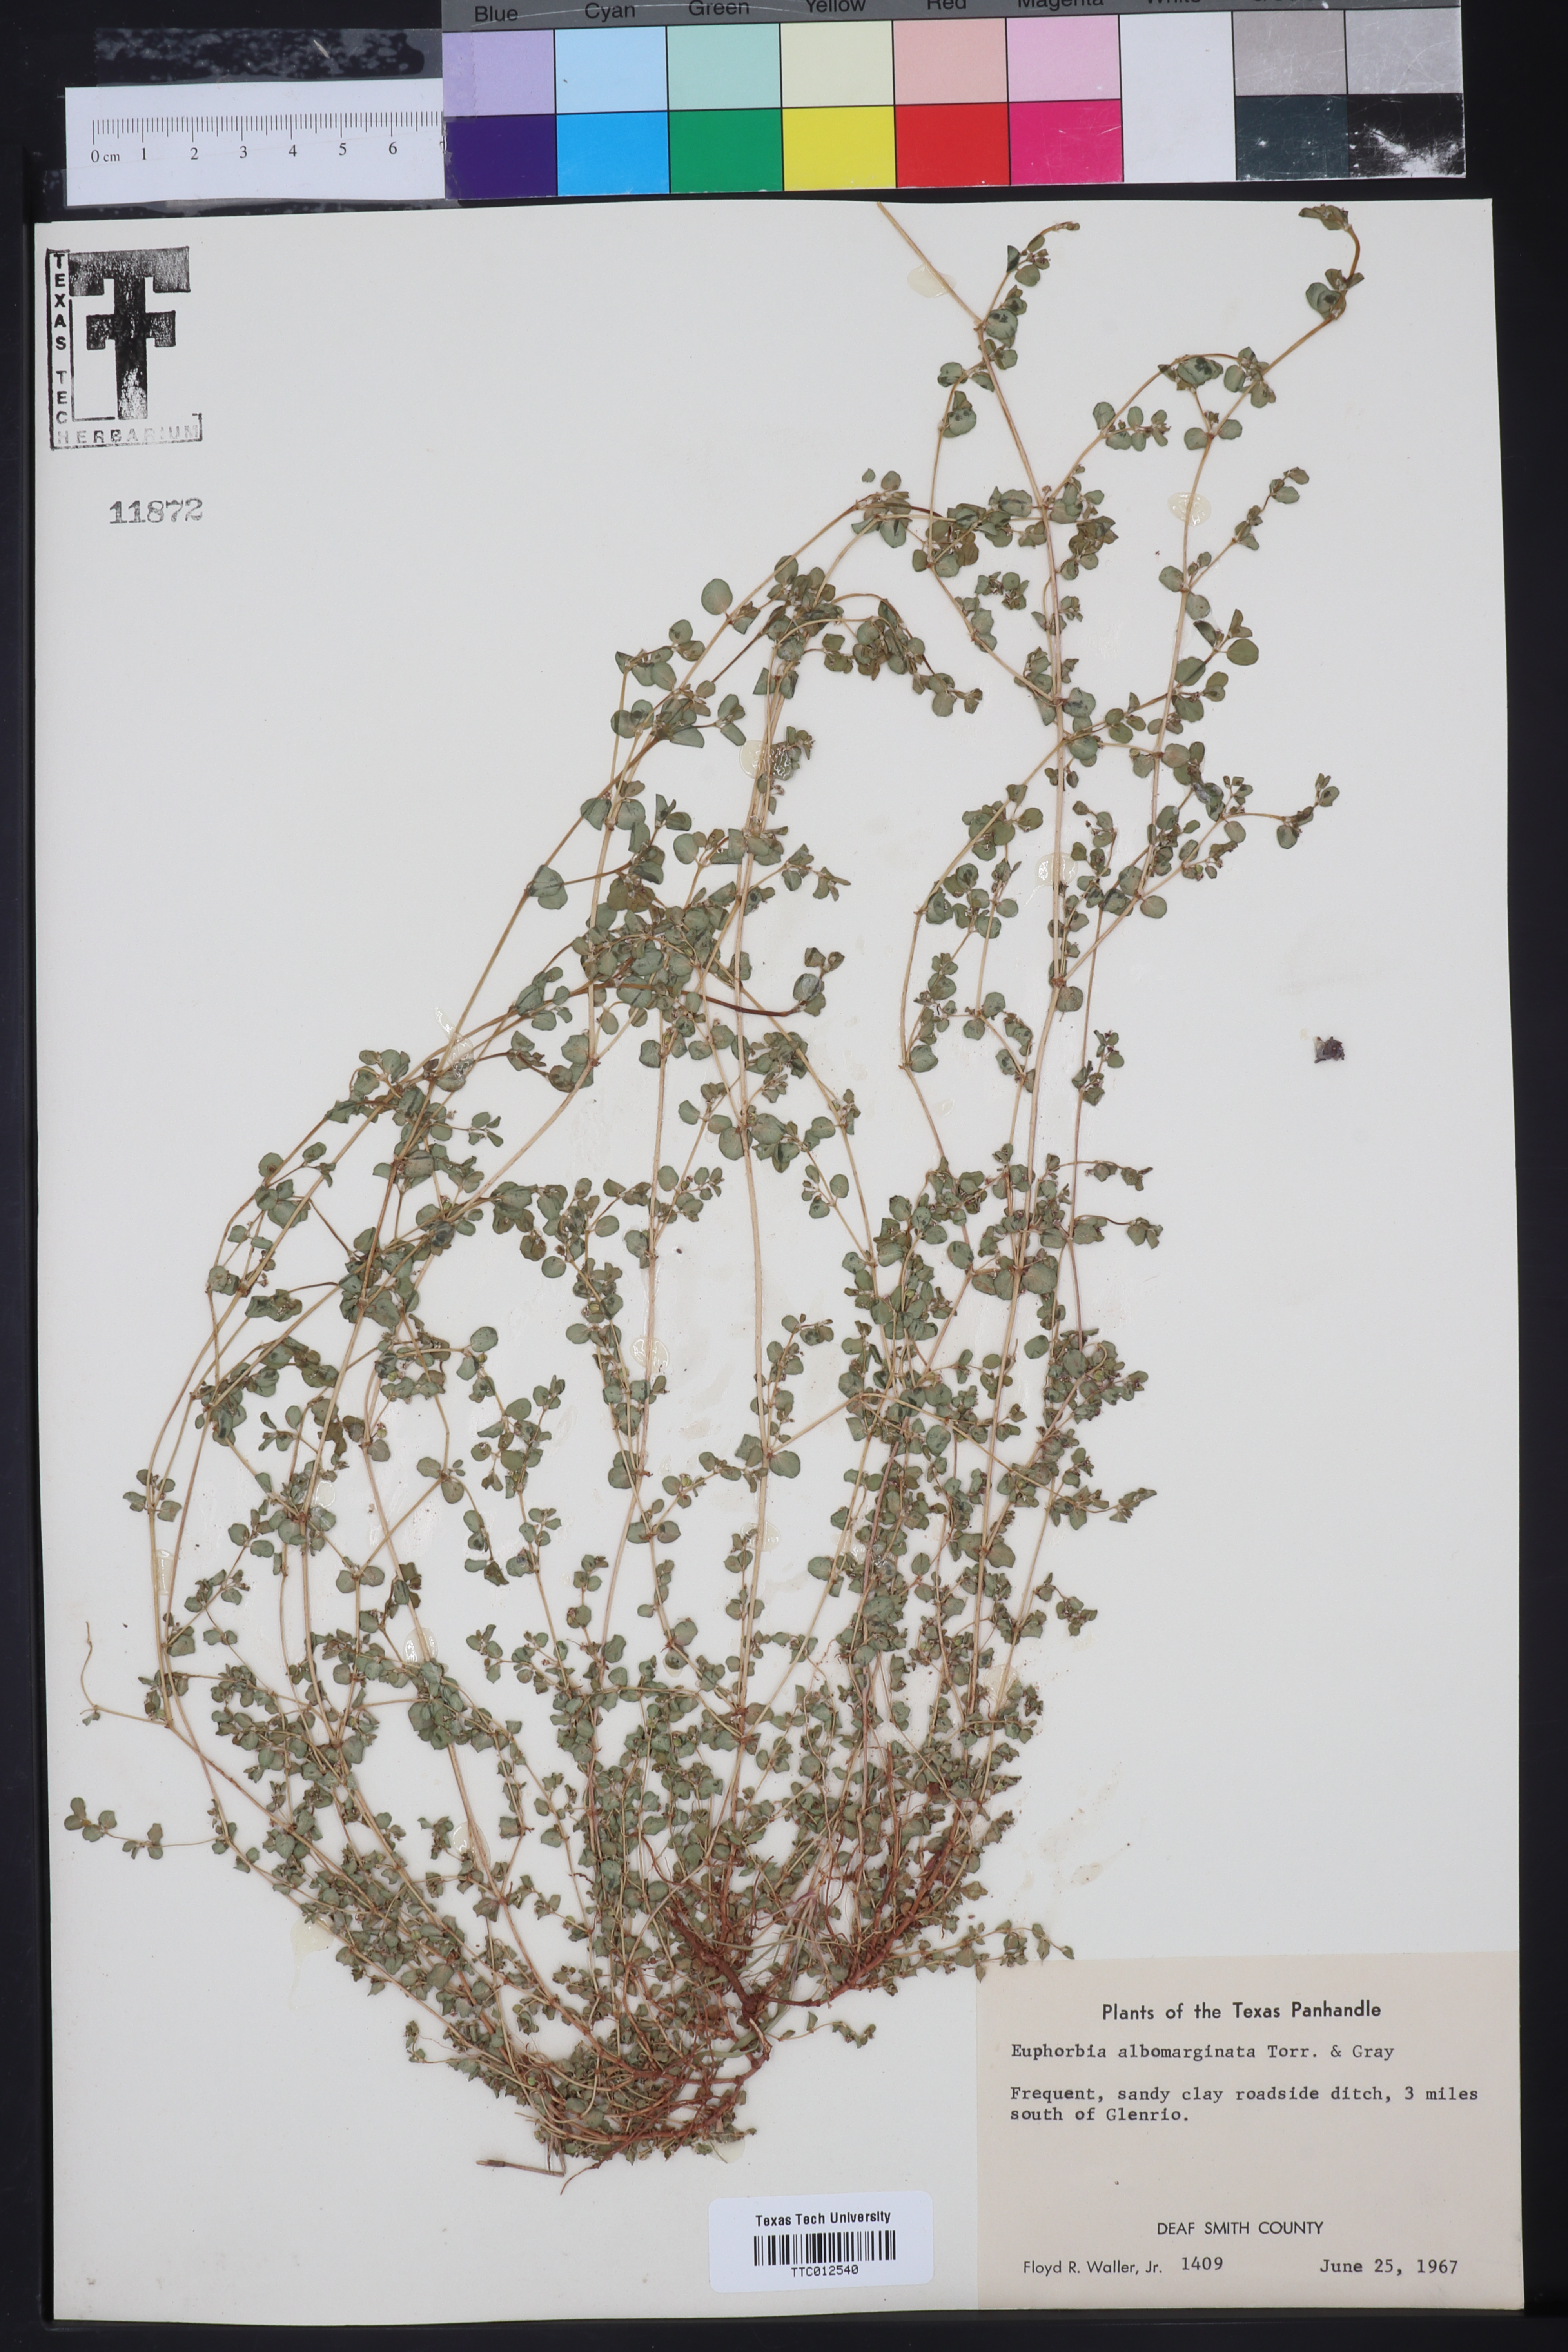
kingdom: Plantae
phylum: Tracheophyta
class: Magnoliopsida
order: Malpighiales
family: Euphorbiaceae
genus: Euphorbia
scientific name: Euphorbia albomarginata
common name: Whitemargin sandmat
